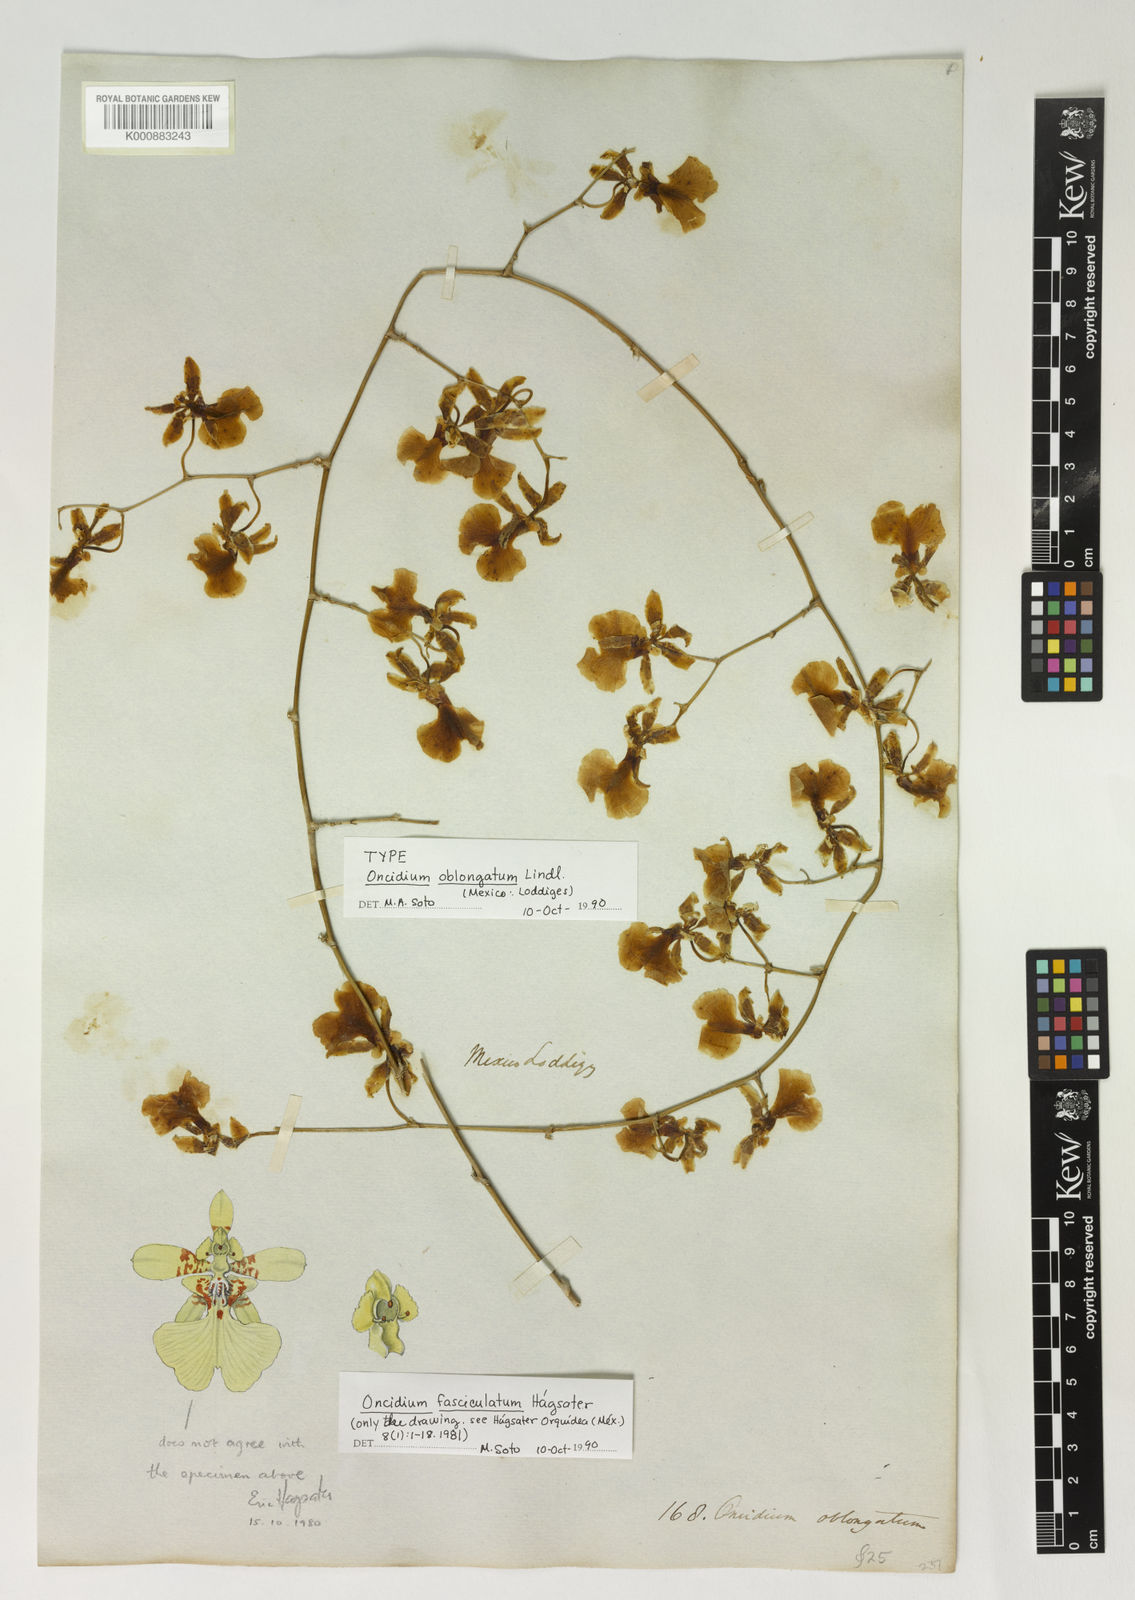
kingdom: Plantae
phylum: Tracheophyta
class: Liliopsida
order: Asparagales
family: Orchidaceae
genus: Oncidium
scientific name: Oncidium oblongatum
